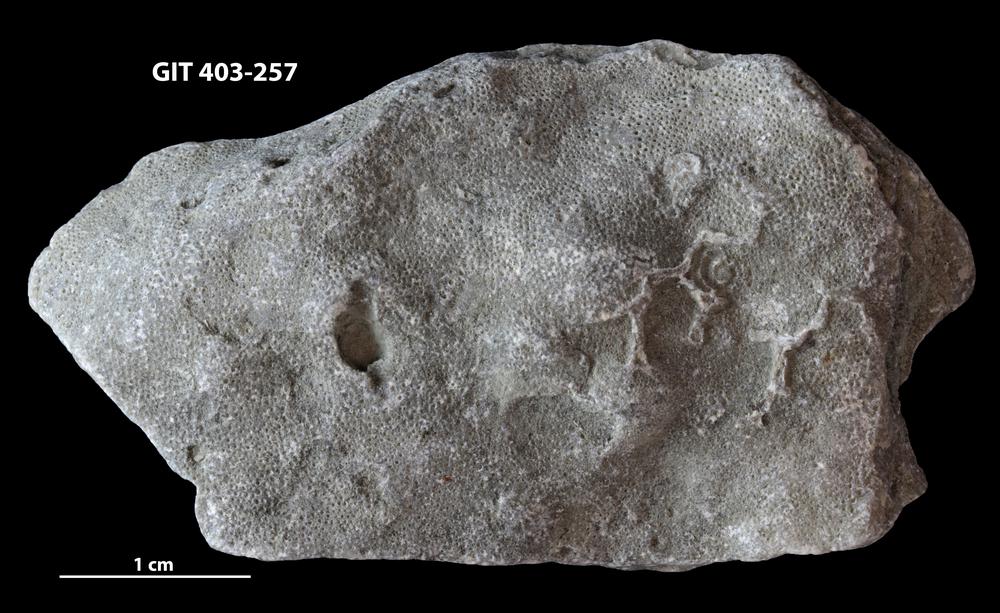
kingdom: Animalia
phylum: Bryozoa
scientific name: Bryozoa
